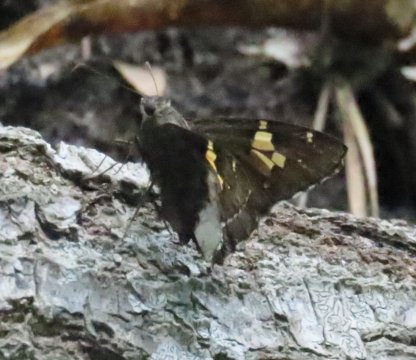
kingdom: Animalia
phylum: Arthropoda
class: Insecta
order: Lepidoptera
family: Hesperiidae
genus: Achalarus
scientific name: Achalarus lyciades
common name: Hoary Edge
